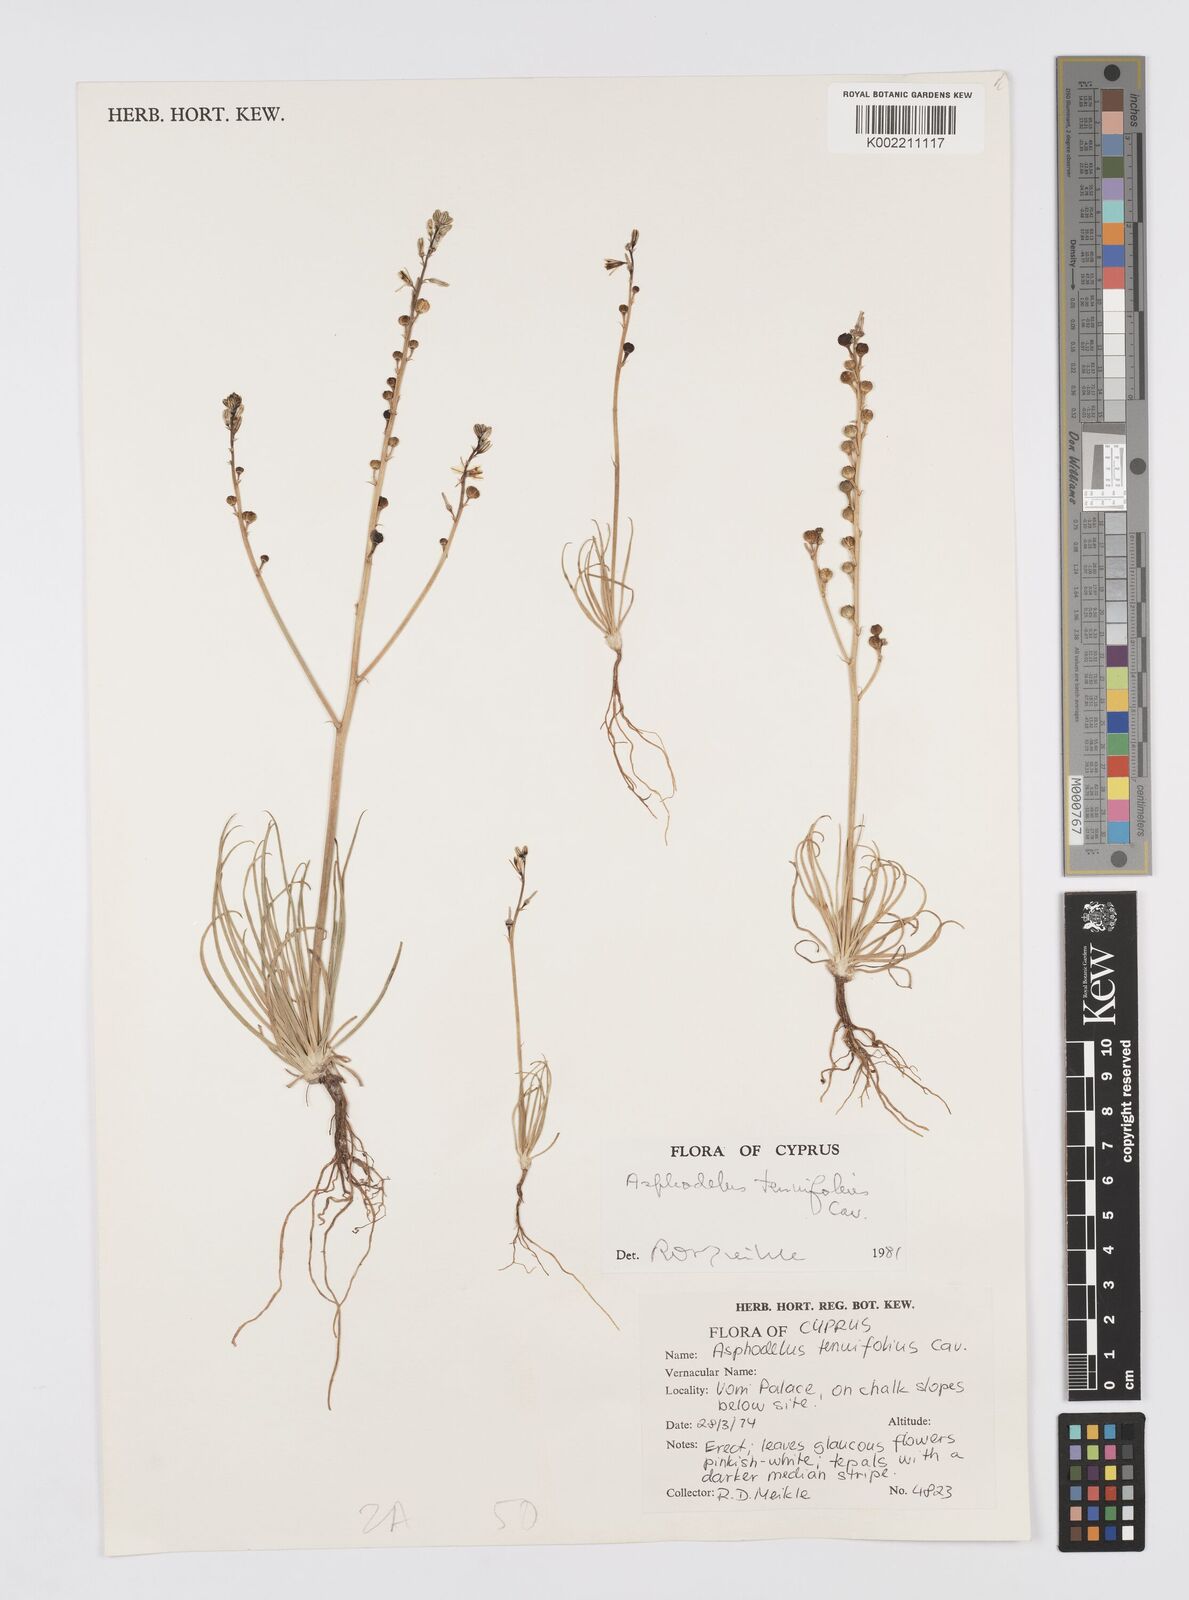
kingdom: Plantae
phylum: Tracheophyta
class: Liliopsida
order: Asparagales
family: Asphodelaceae
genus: Asphodelus
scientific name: Asphodelus tenuifolius
